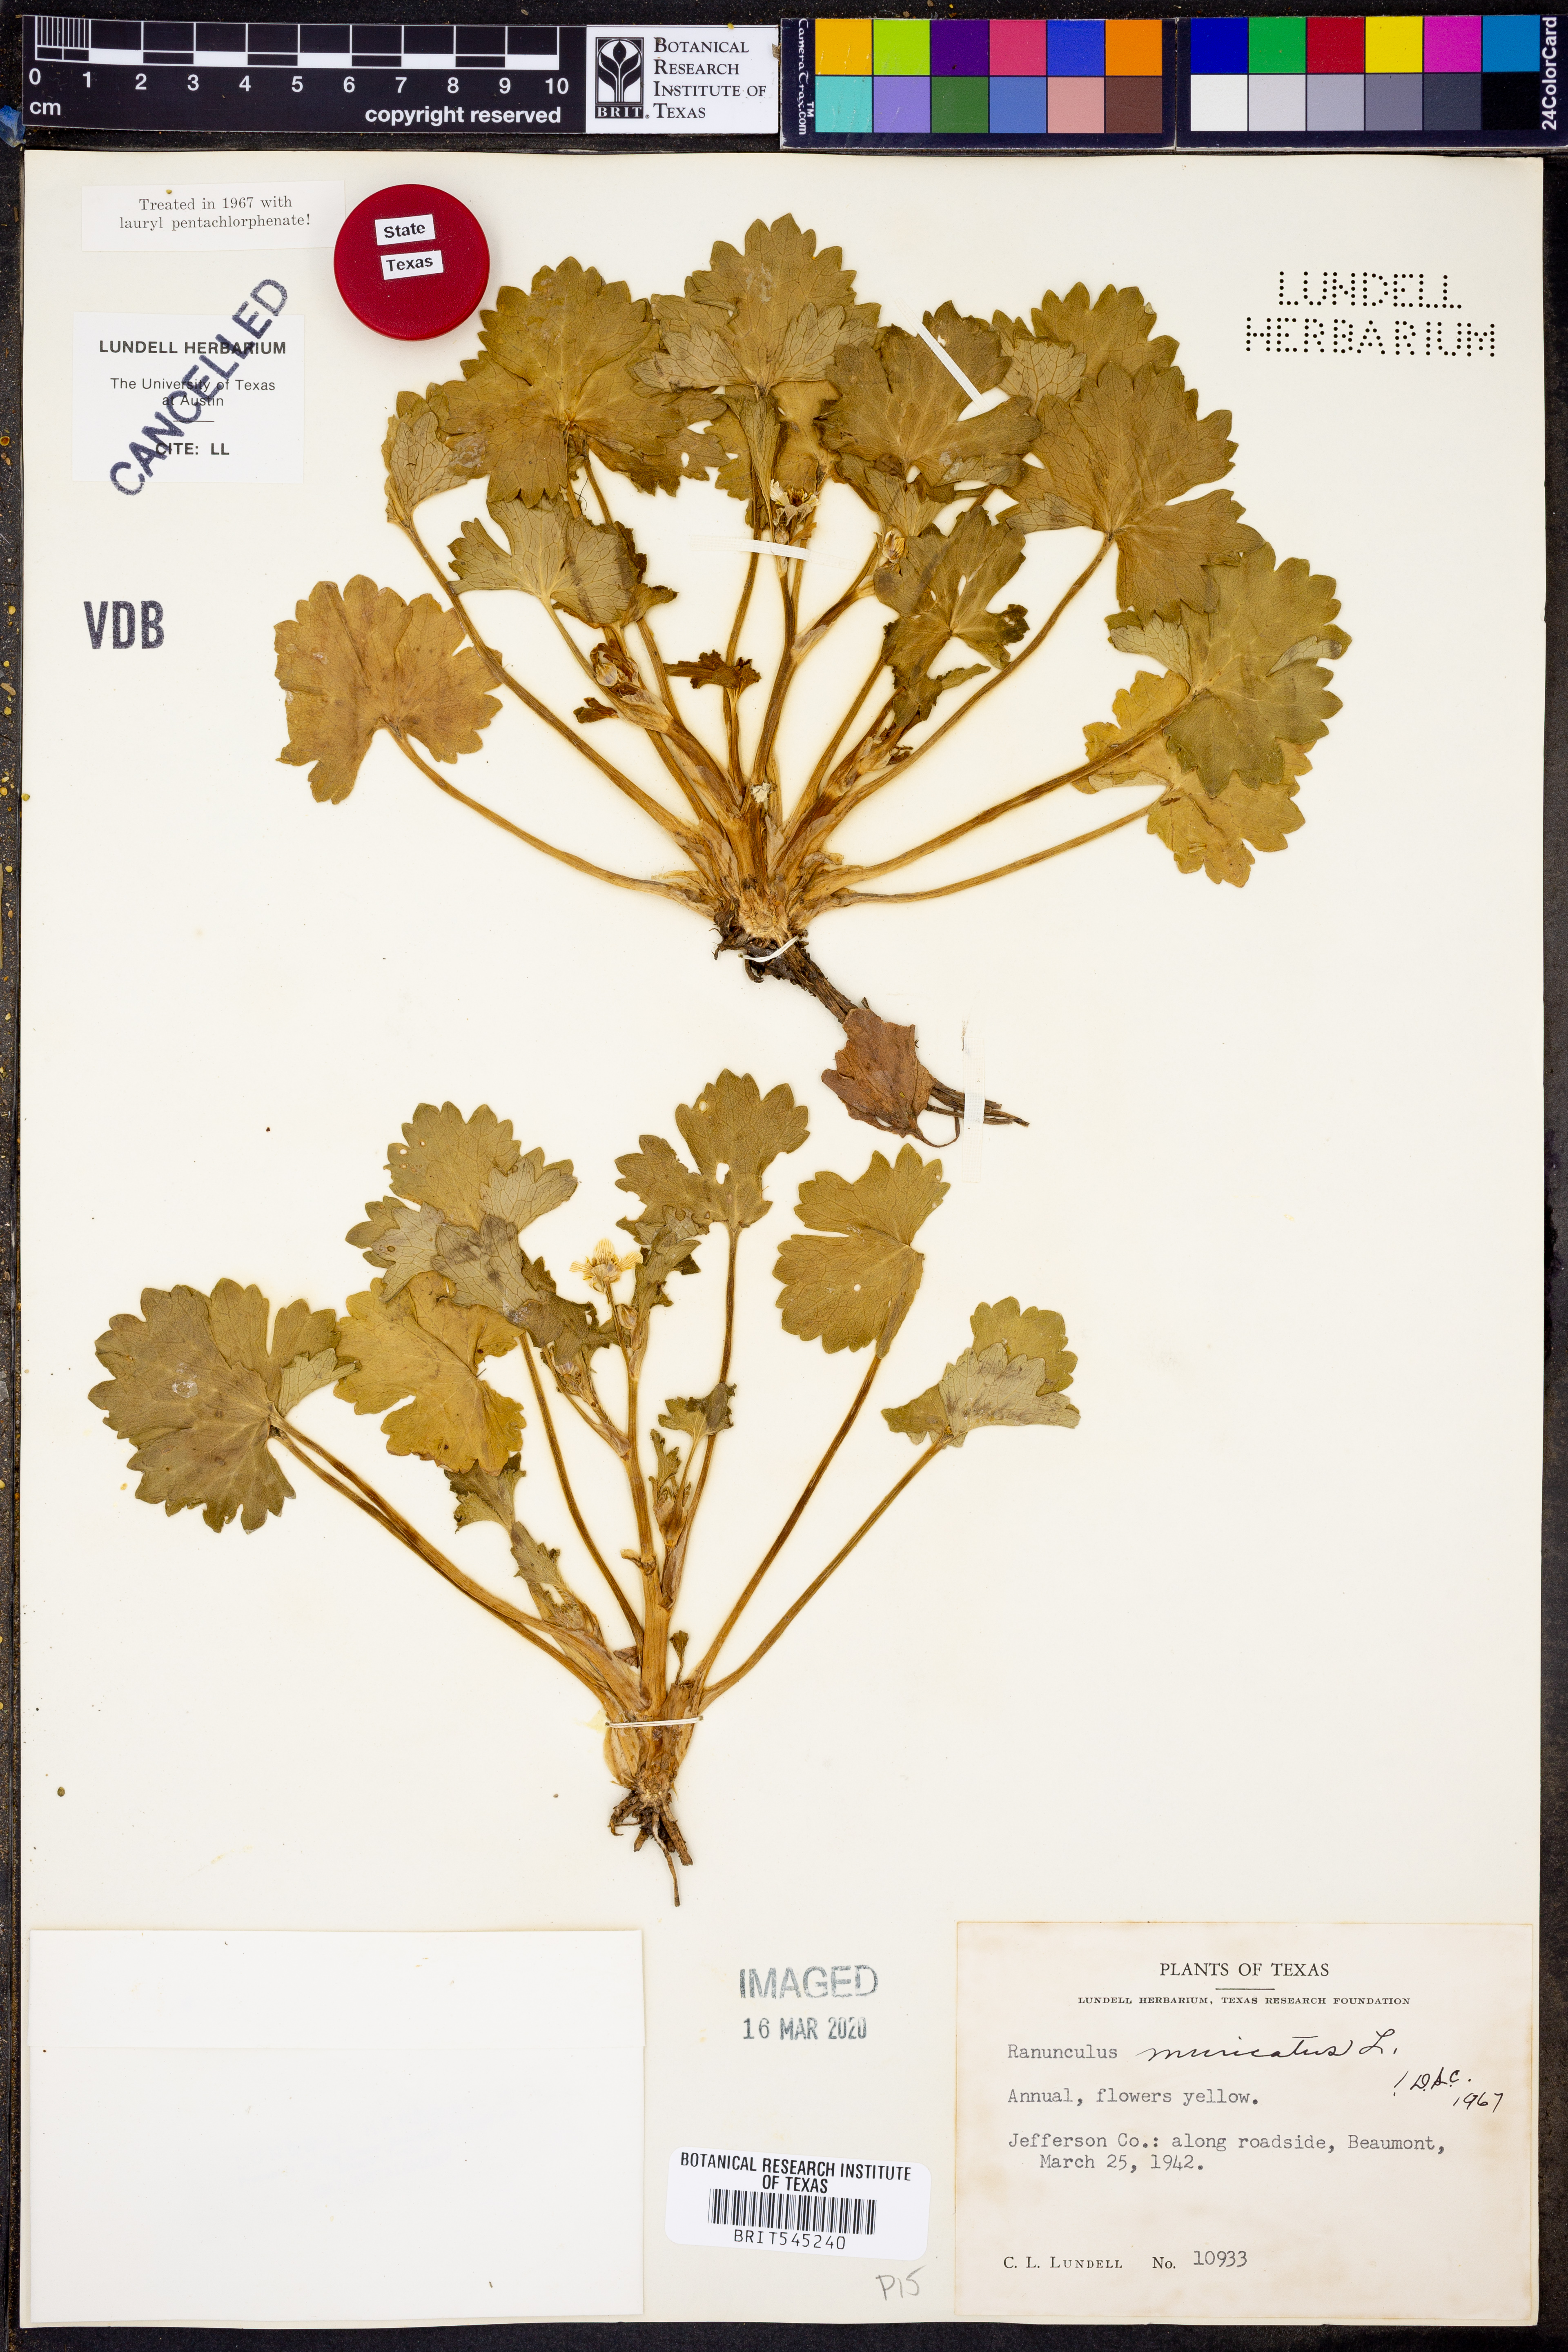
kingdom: Plantae
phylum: Tracheophyta
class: Magnoliopsida
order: Ranunculales
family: Ranunculaceae
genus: Ranunculus
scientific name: Ranunculus muricatus
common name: Rough-fruited buttercup
